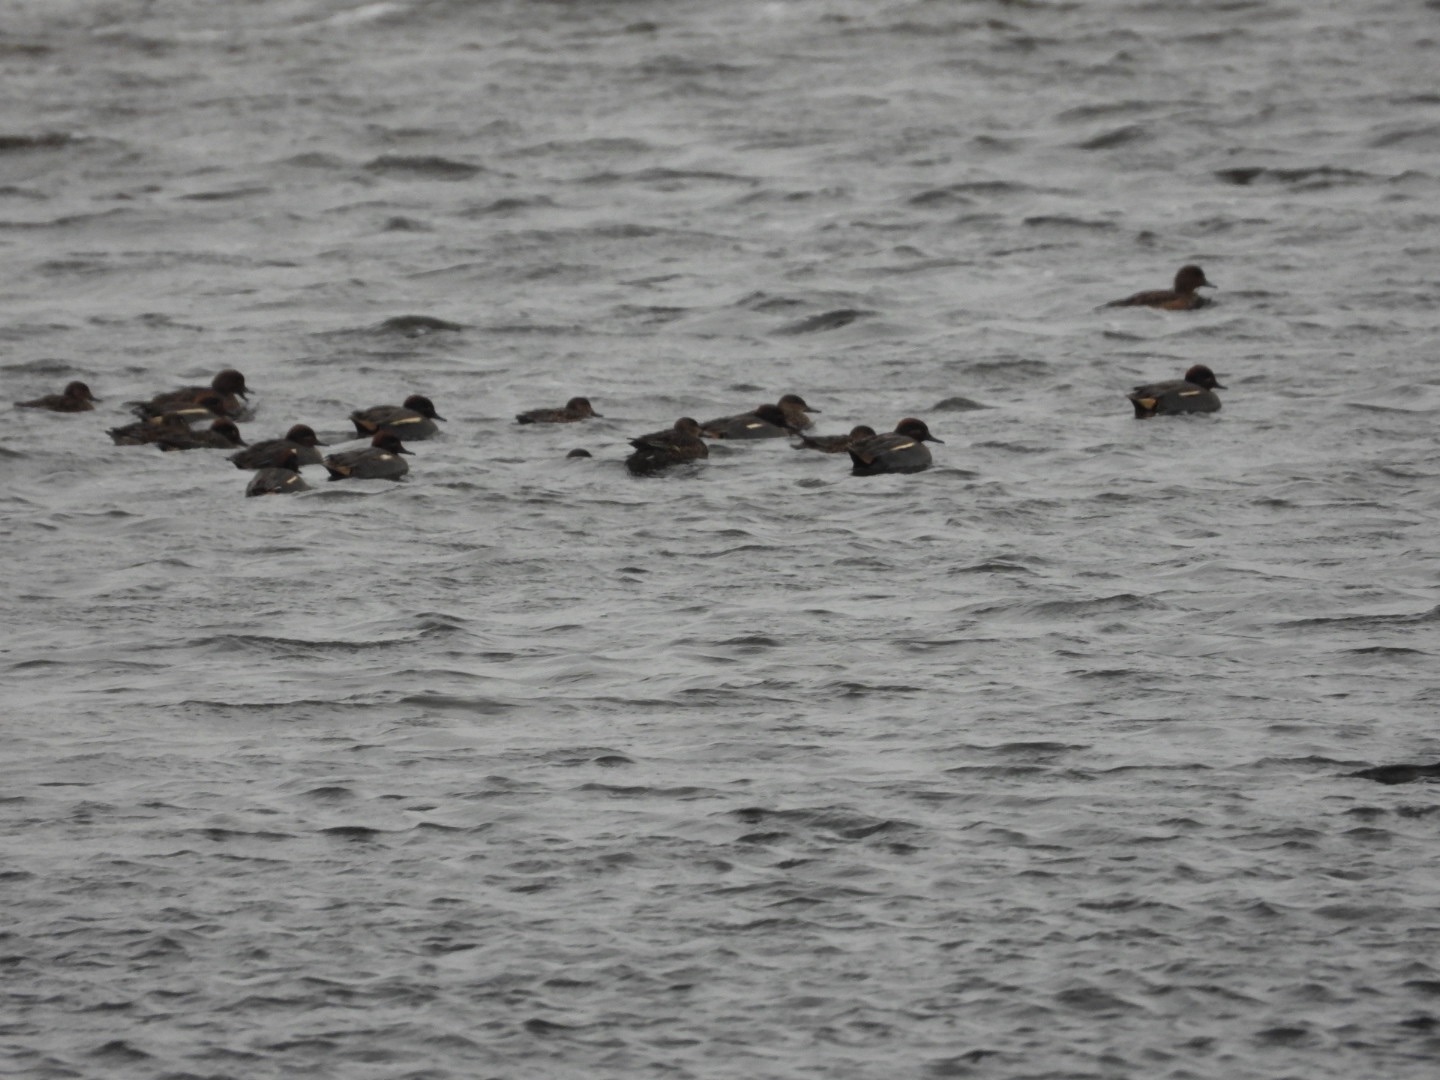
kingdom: Animalia
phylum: Chordata
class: Aves
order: Anseriformes
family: Anatidae
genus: Anas
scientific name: Anas crecca
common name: Krikand
